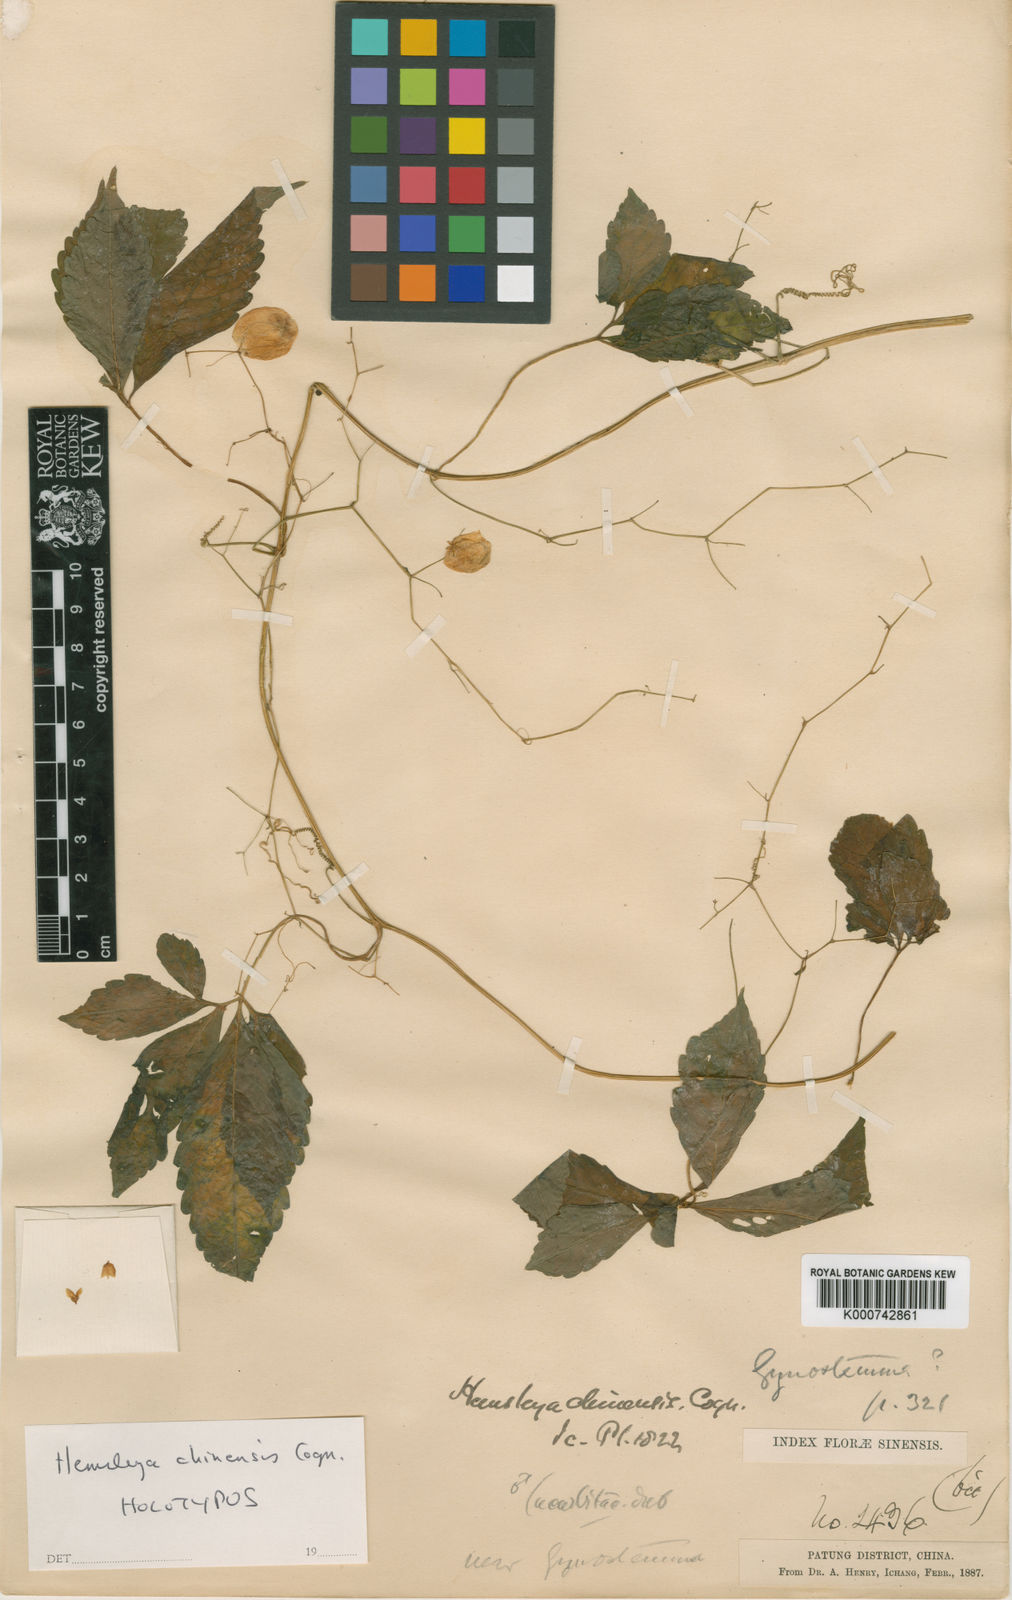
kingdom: Plantae
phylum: Tracheophyta
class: Magnoliopsida
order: Cucurbitales
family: Cucurbitaceae
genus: Hemsleya
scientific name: Hemsleya chinensis
